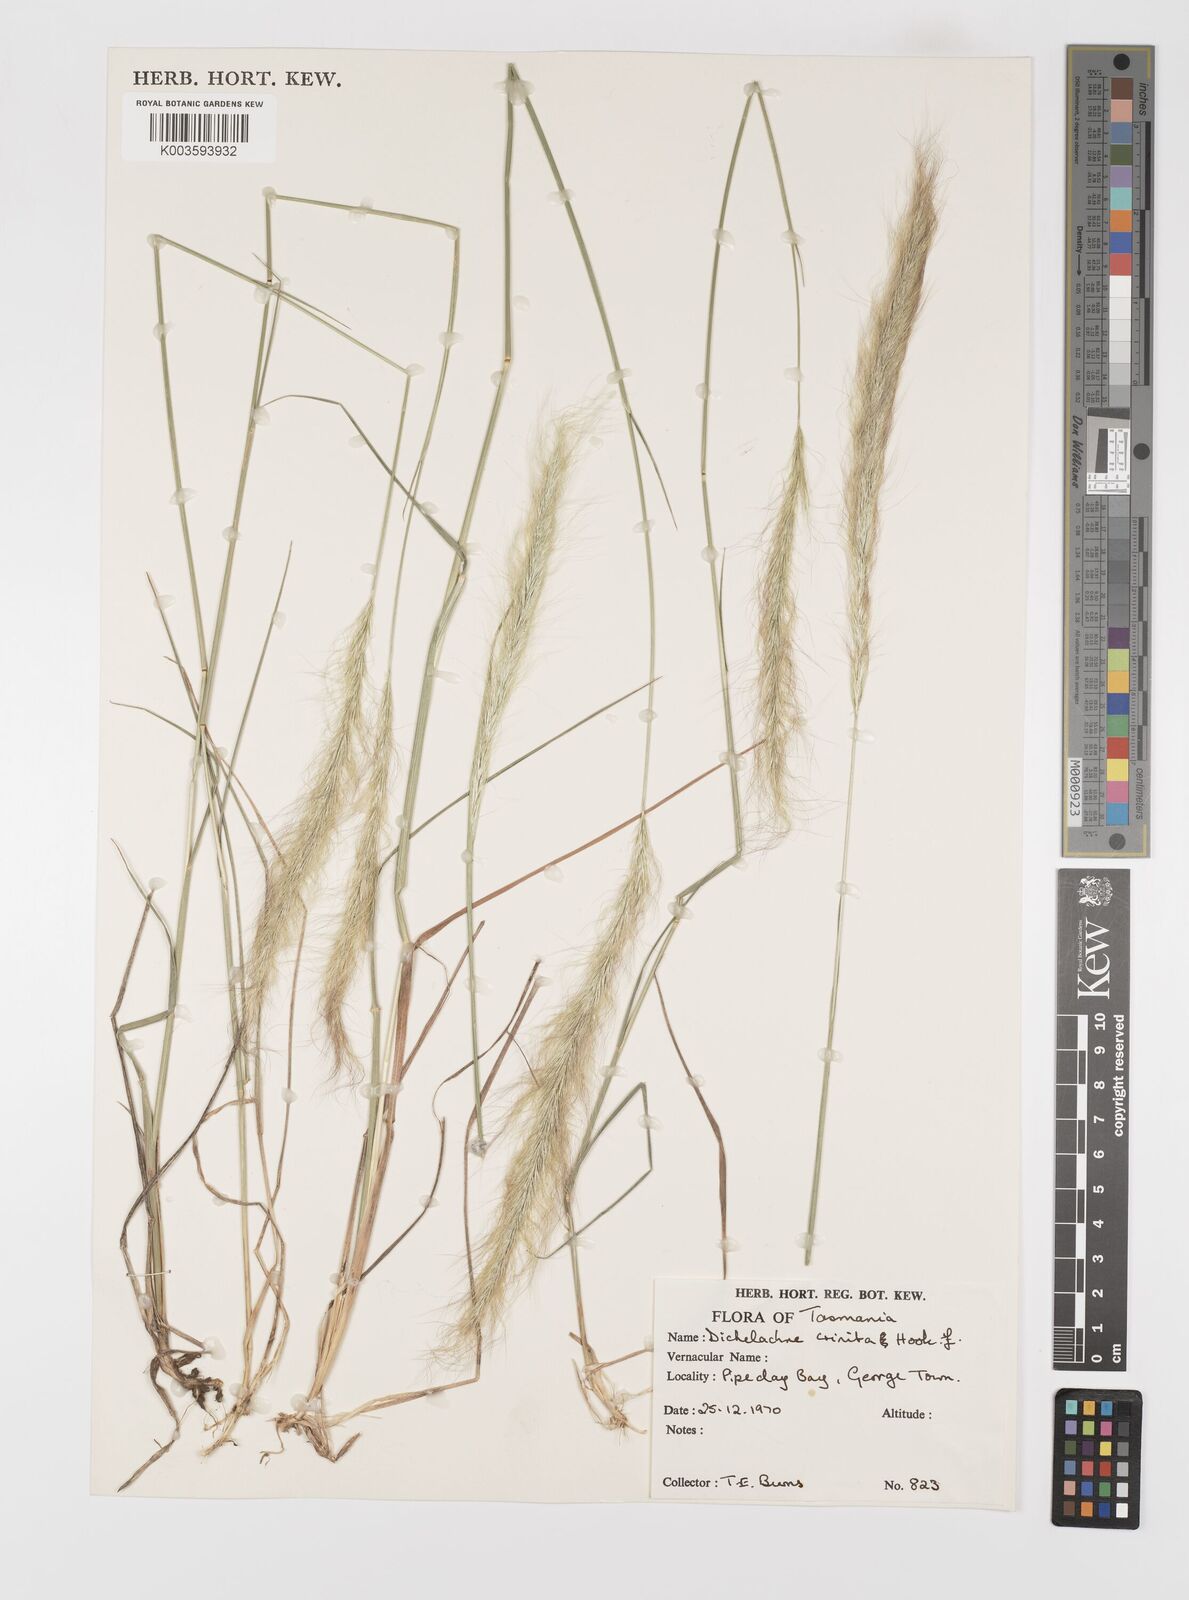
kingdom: Plantae
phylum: Tracheophyta
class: Liliopsida
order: Poales
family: Poaceae
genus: Dichelachne
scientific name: Dichelachne crinita
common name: Clovenfoot plumegrass
